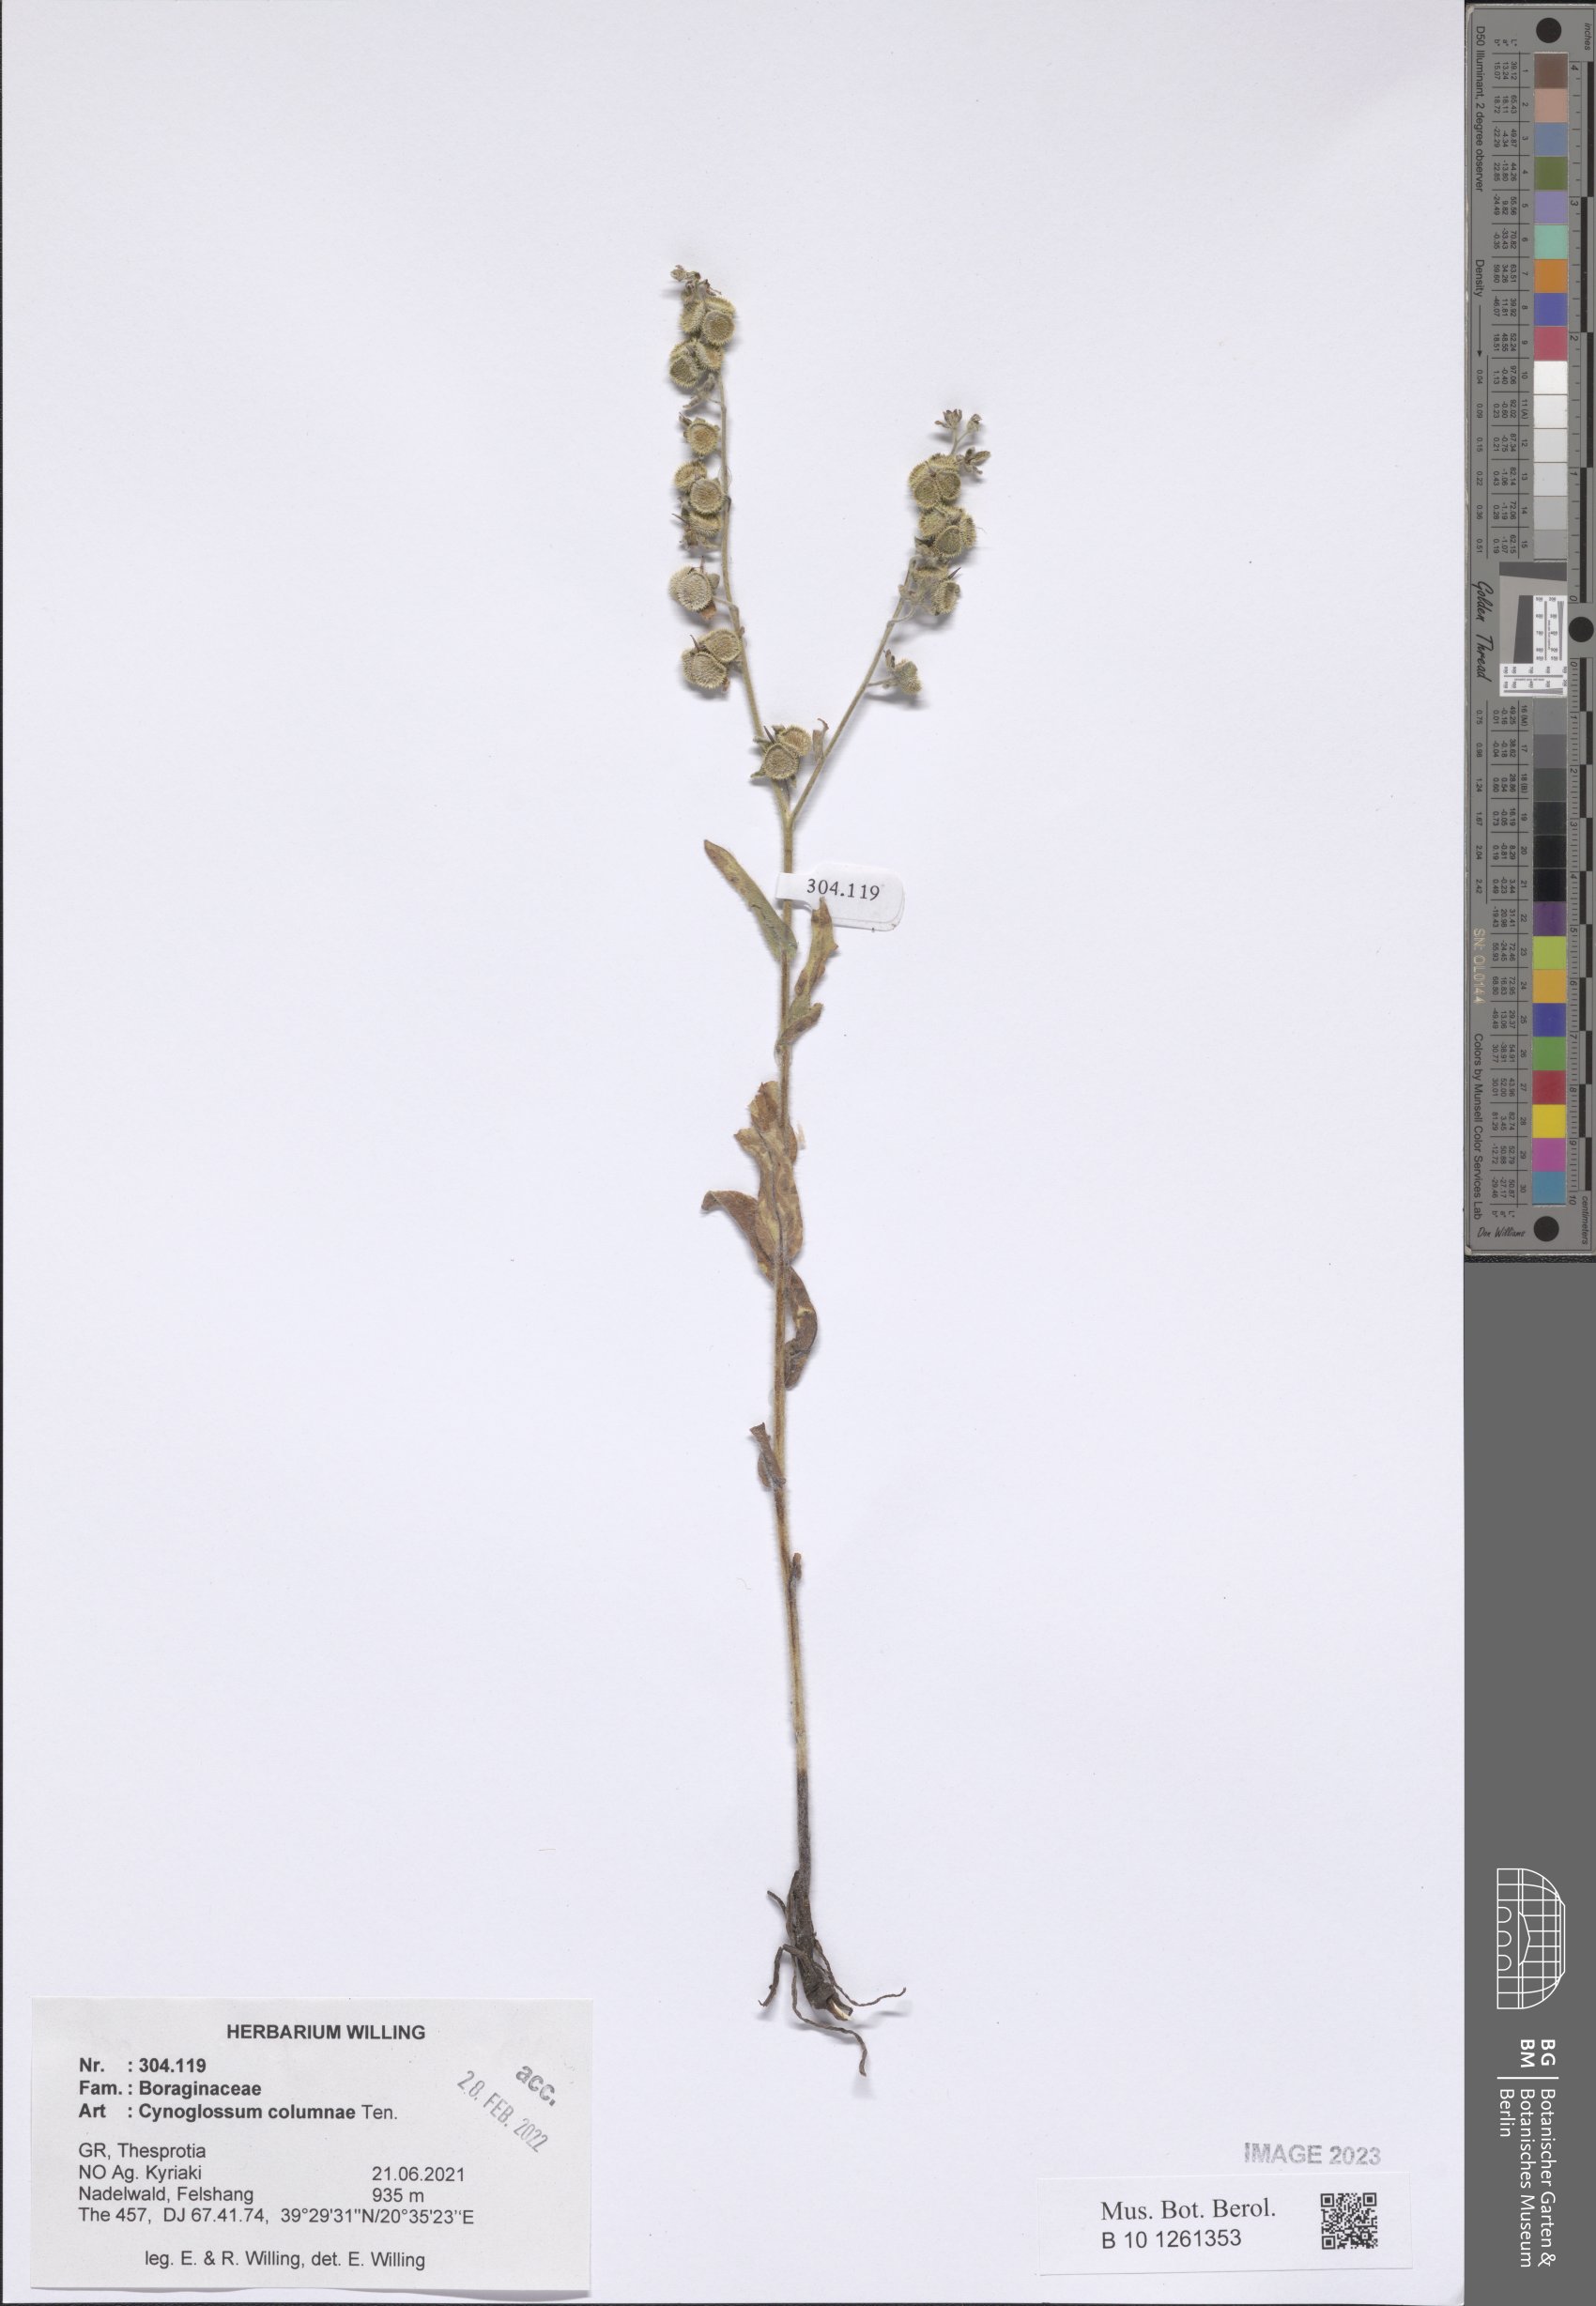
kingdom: Plantae
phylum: Tracheophyta
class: Magnoliopsida
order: Boraginales
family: Boraginaceae
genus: Rindera
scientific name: Rindera columnae
